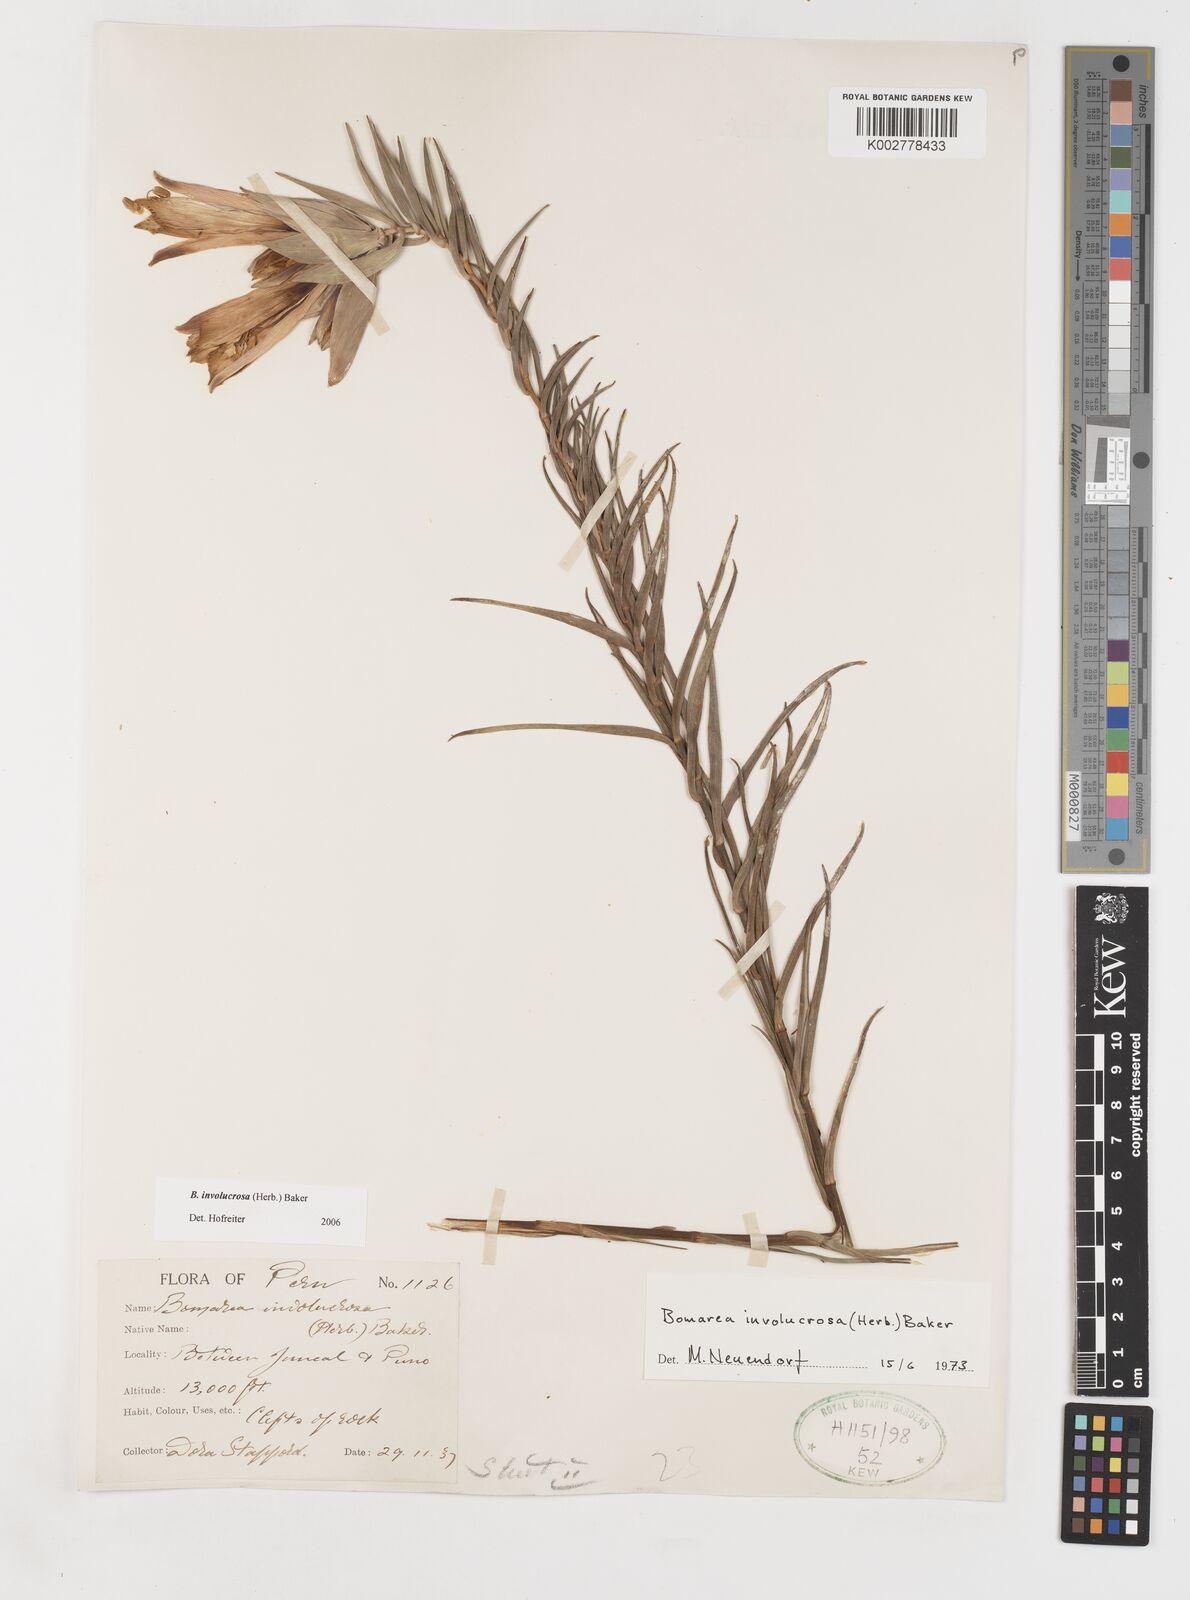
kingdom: Plantae
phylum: Tracheophyta
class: Liliopsida
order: Liliales
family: Alstroemeriaceae
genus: Bomarea
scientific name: Bomarea involucrosa
